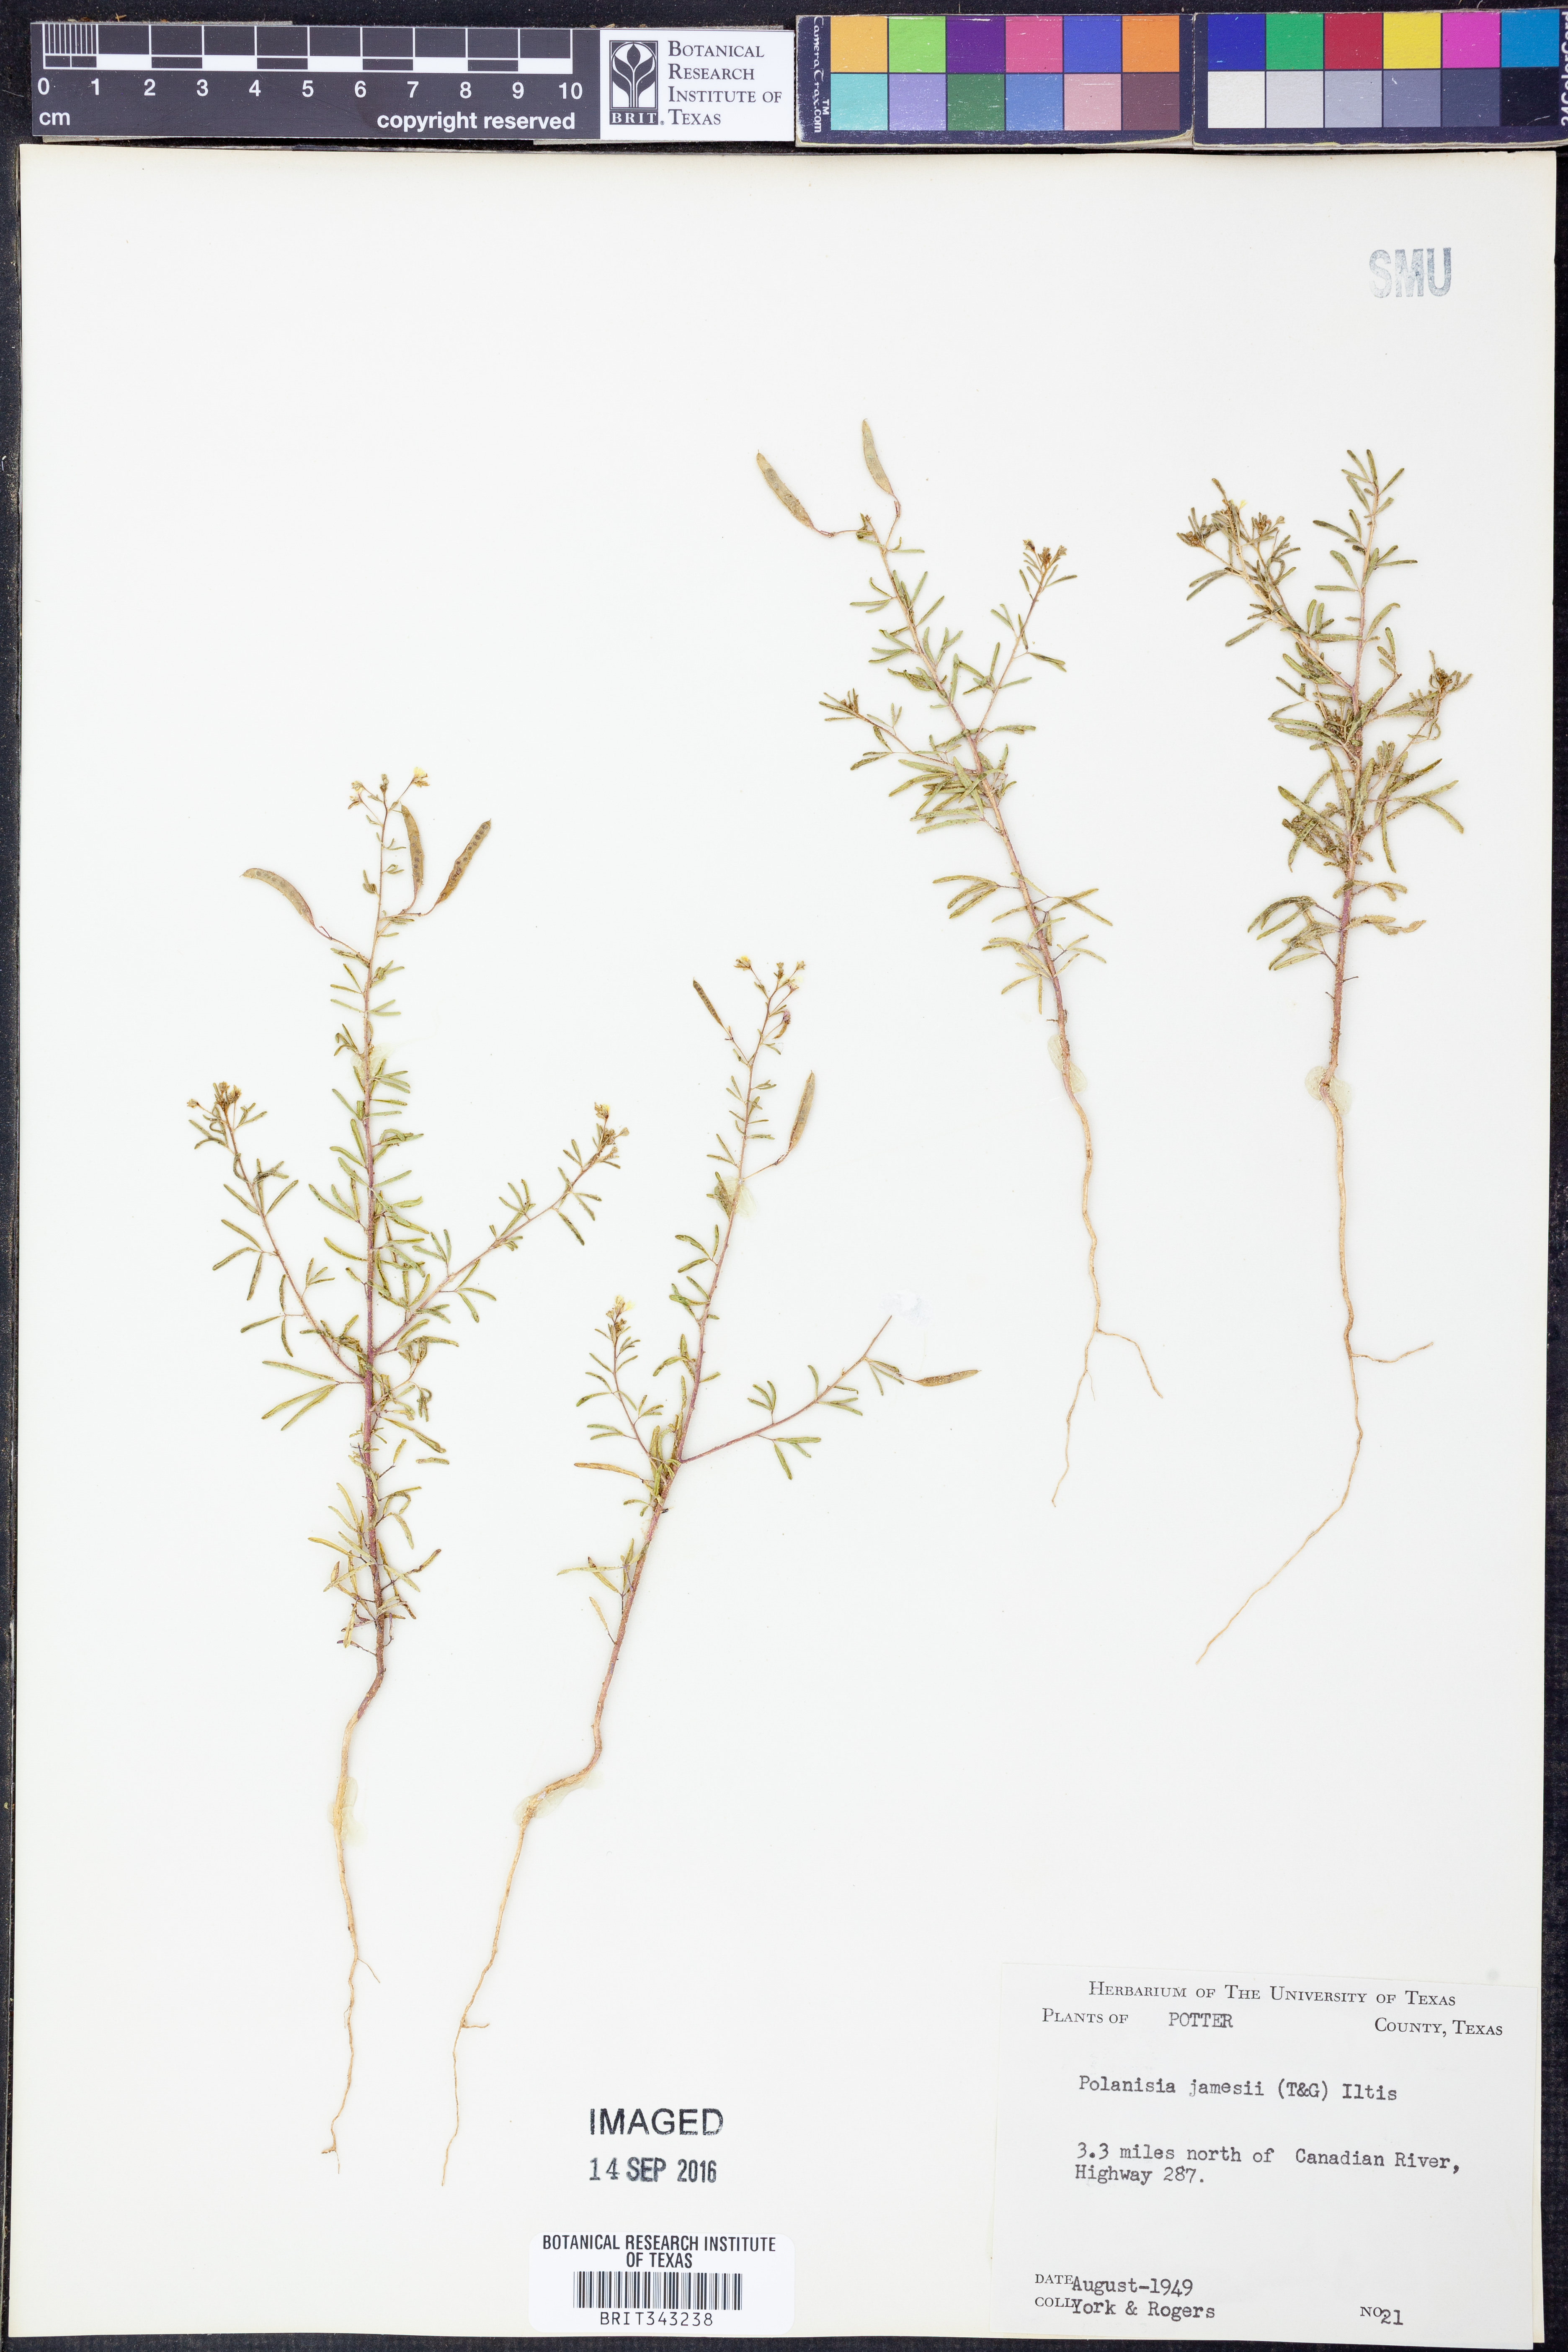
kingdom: Plantae
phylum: Tracheophyta
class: Magnoliopsida
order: Brassicales
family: Cleomaceae
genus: Polanisia
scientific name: Polanisia jamesii
